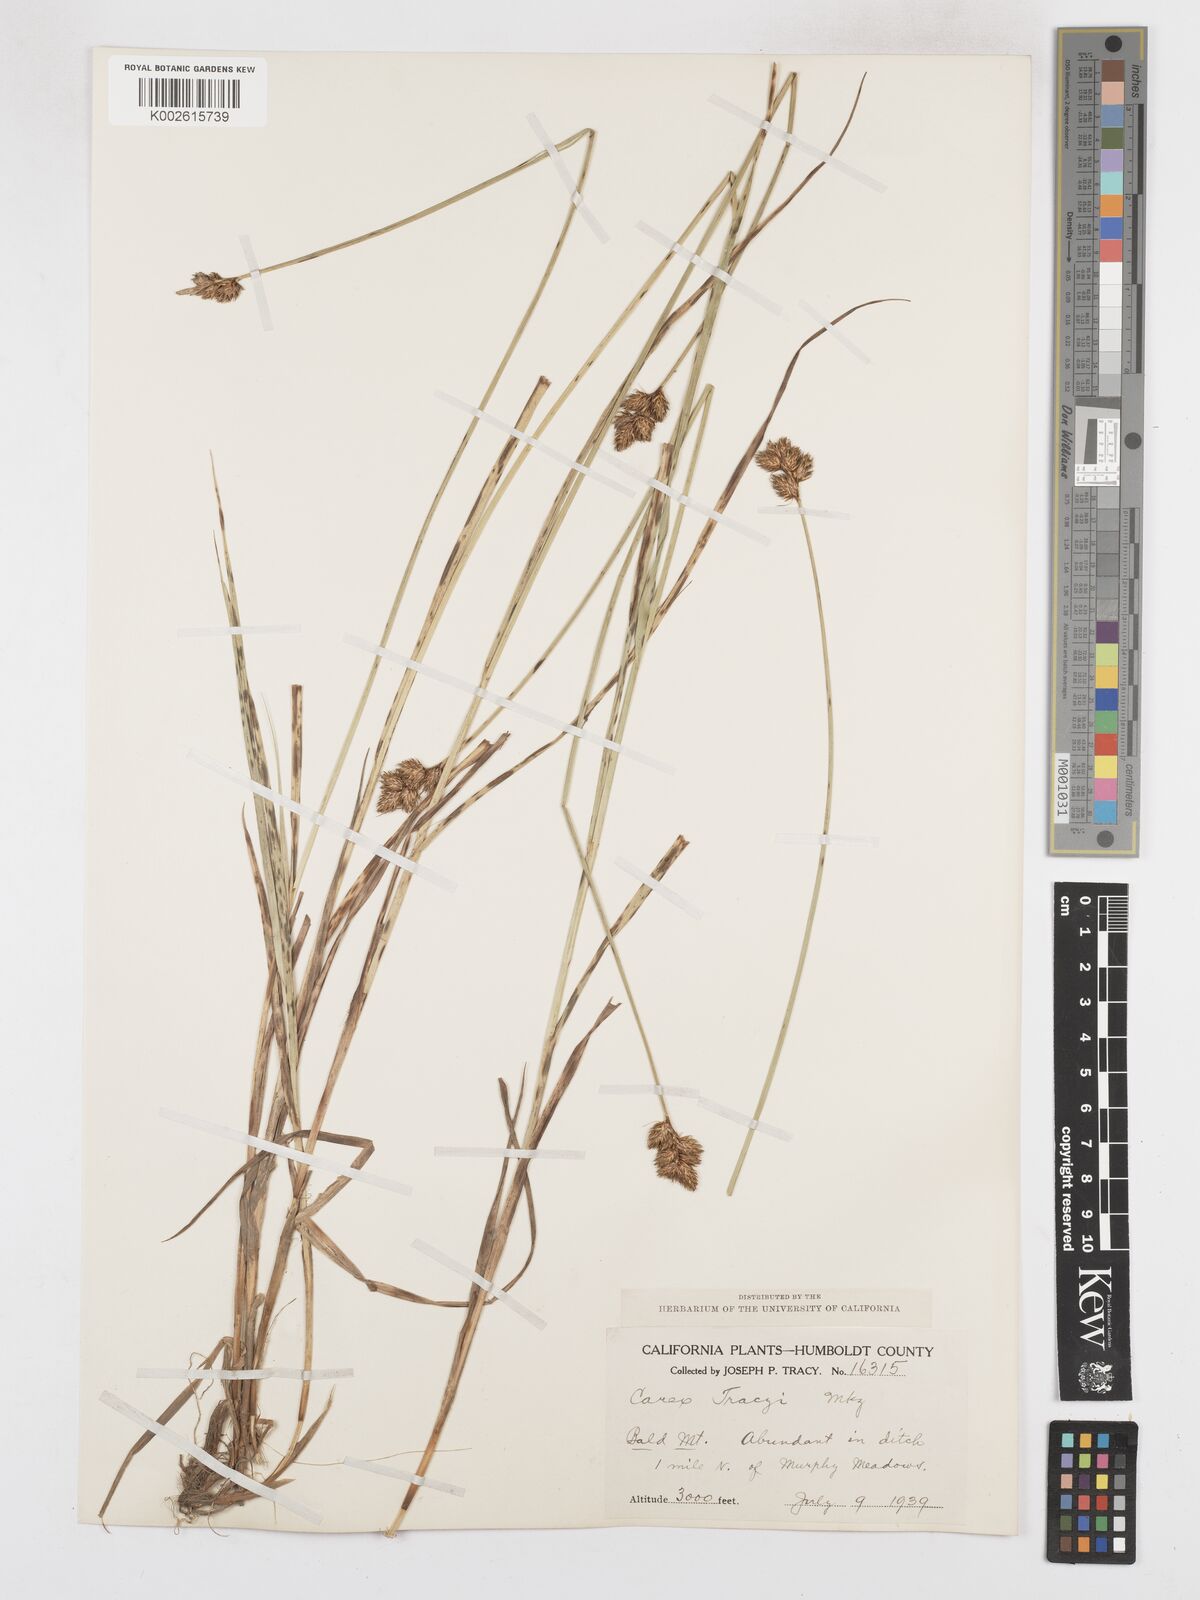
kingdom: Plantae
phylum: Tracheophyta
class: Liliopsida
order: Poales
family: Cyperaceae
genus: Carex
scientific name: Carex leporina
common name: Oval sedge
